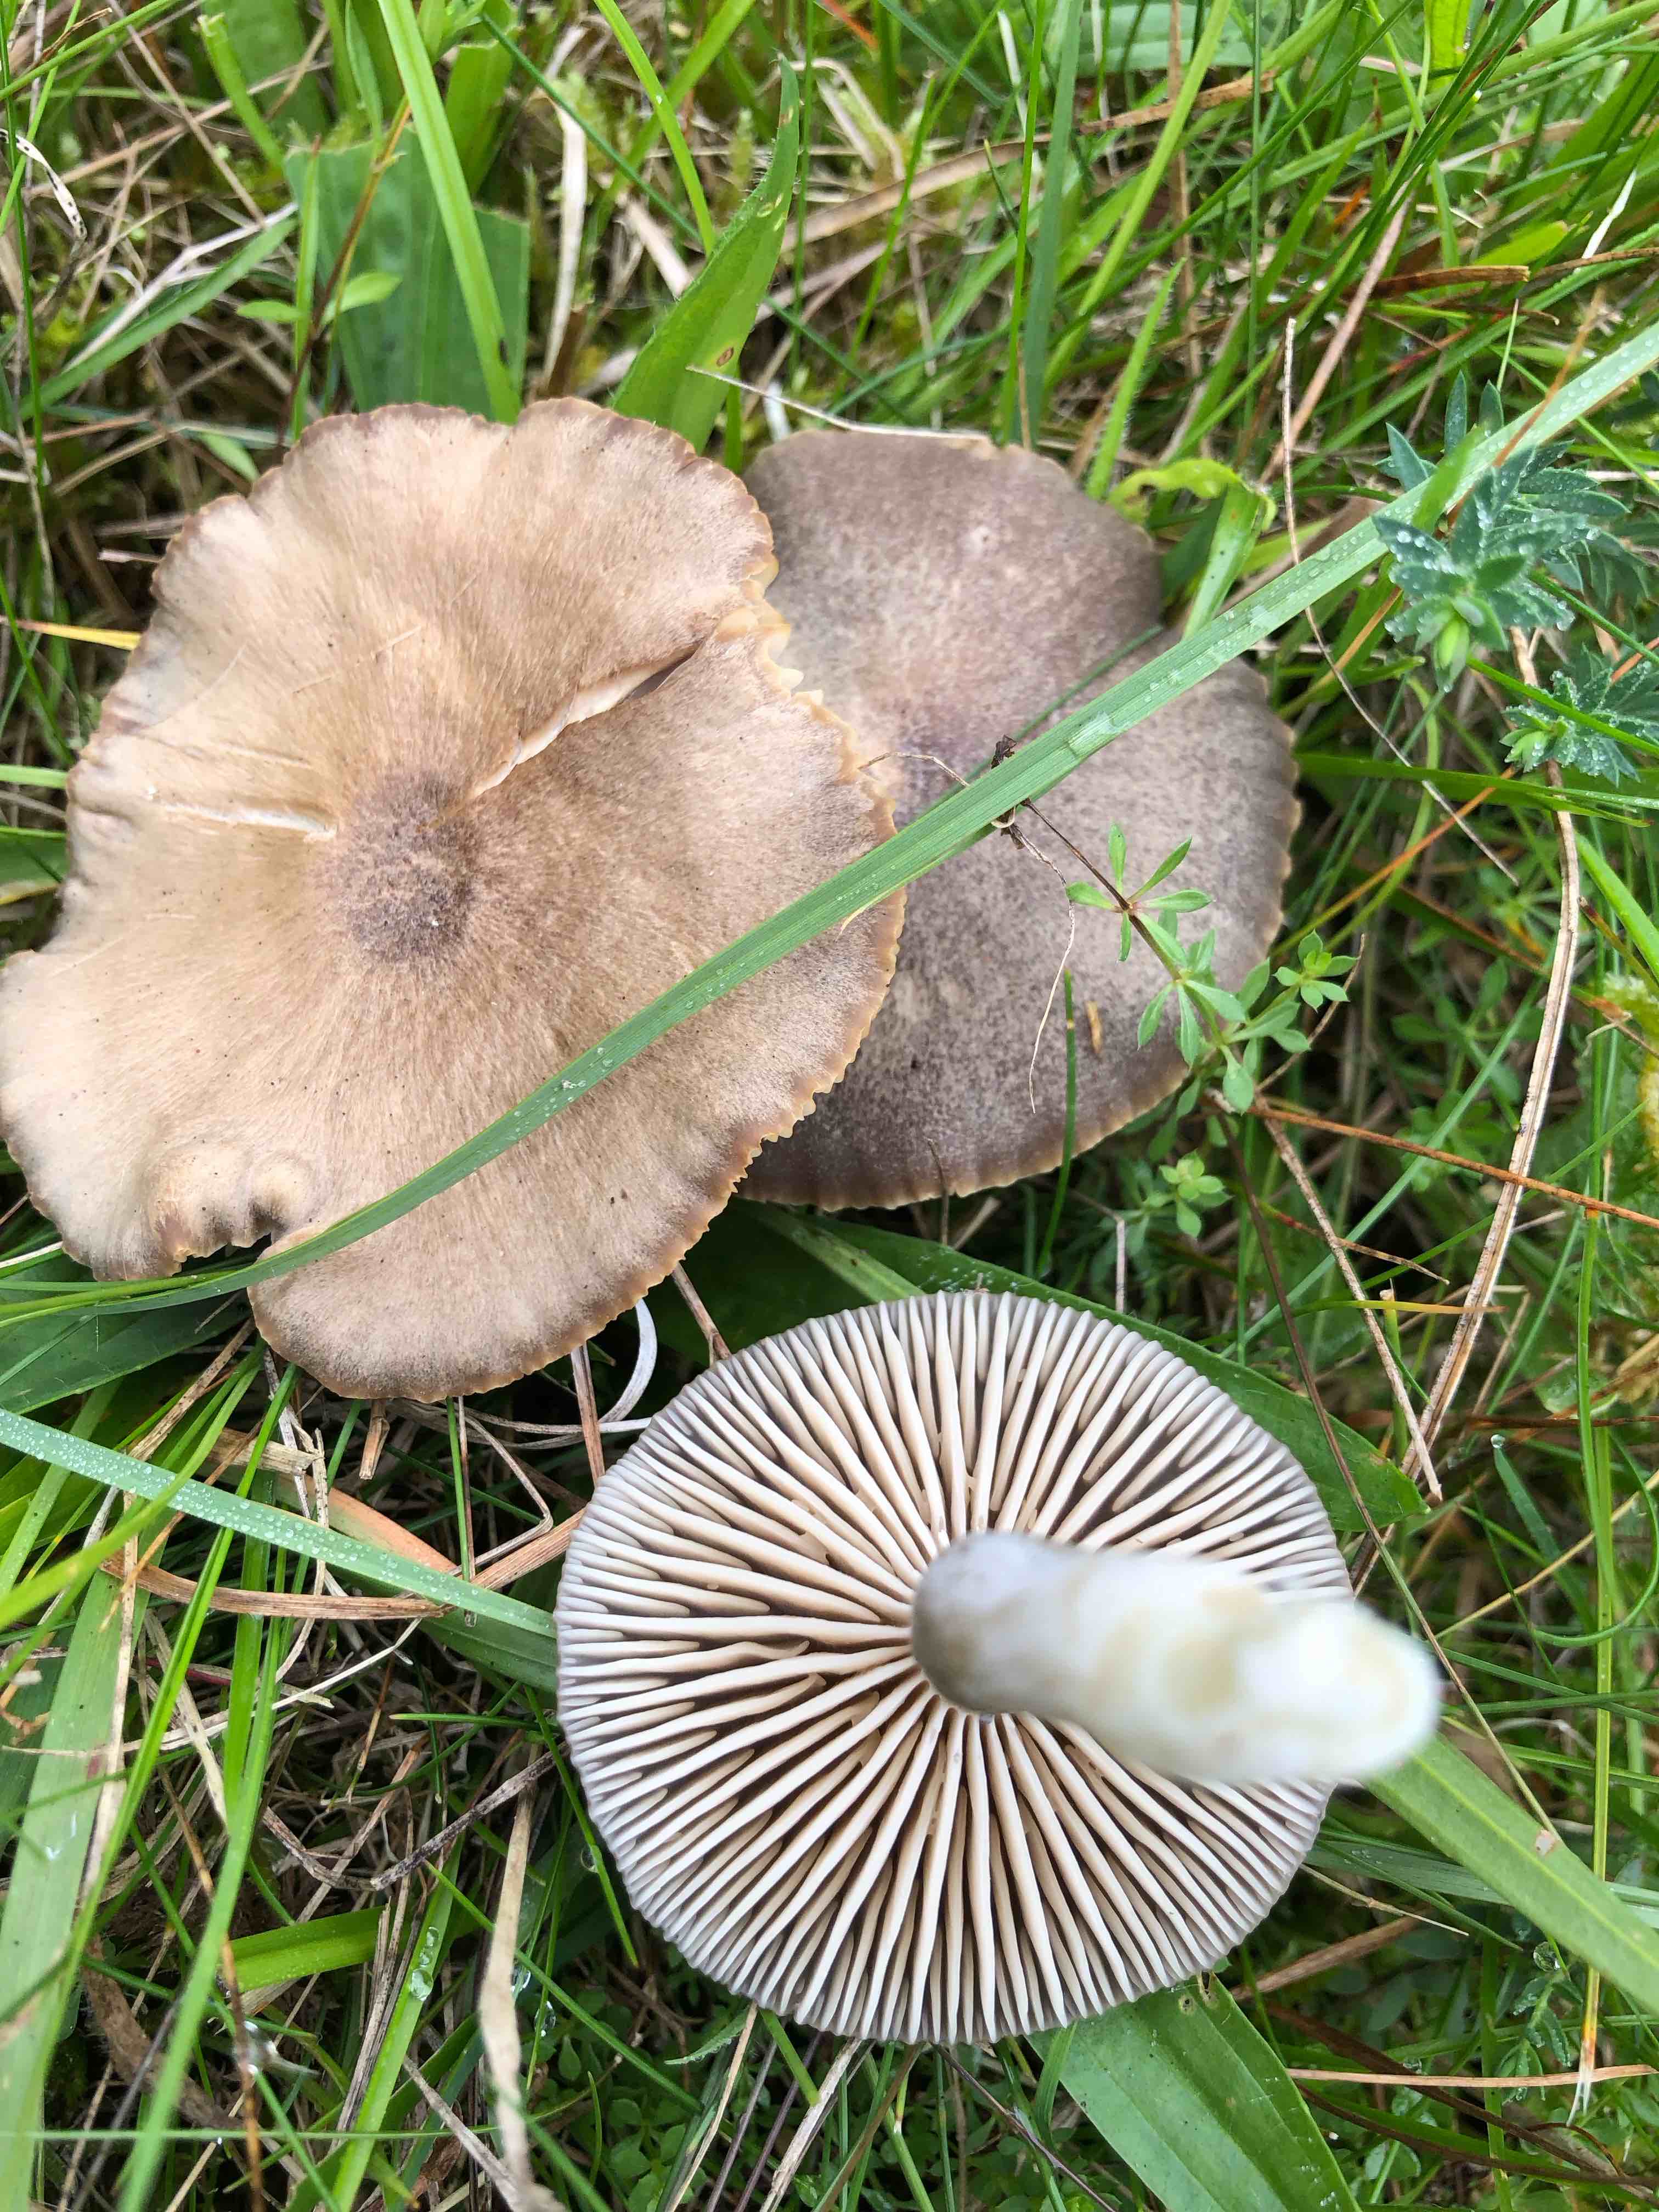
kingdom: Fungi
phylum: Basidiomycota
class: Agaricomycetes
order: Agaricales
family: Hygrophoraceae
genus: Neohygrocybe
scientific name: Neohygrocybe nitrata
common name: stinkende vokshat
